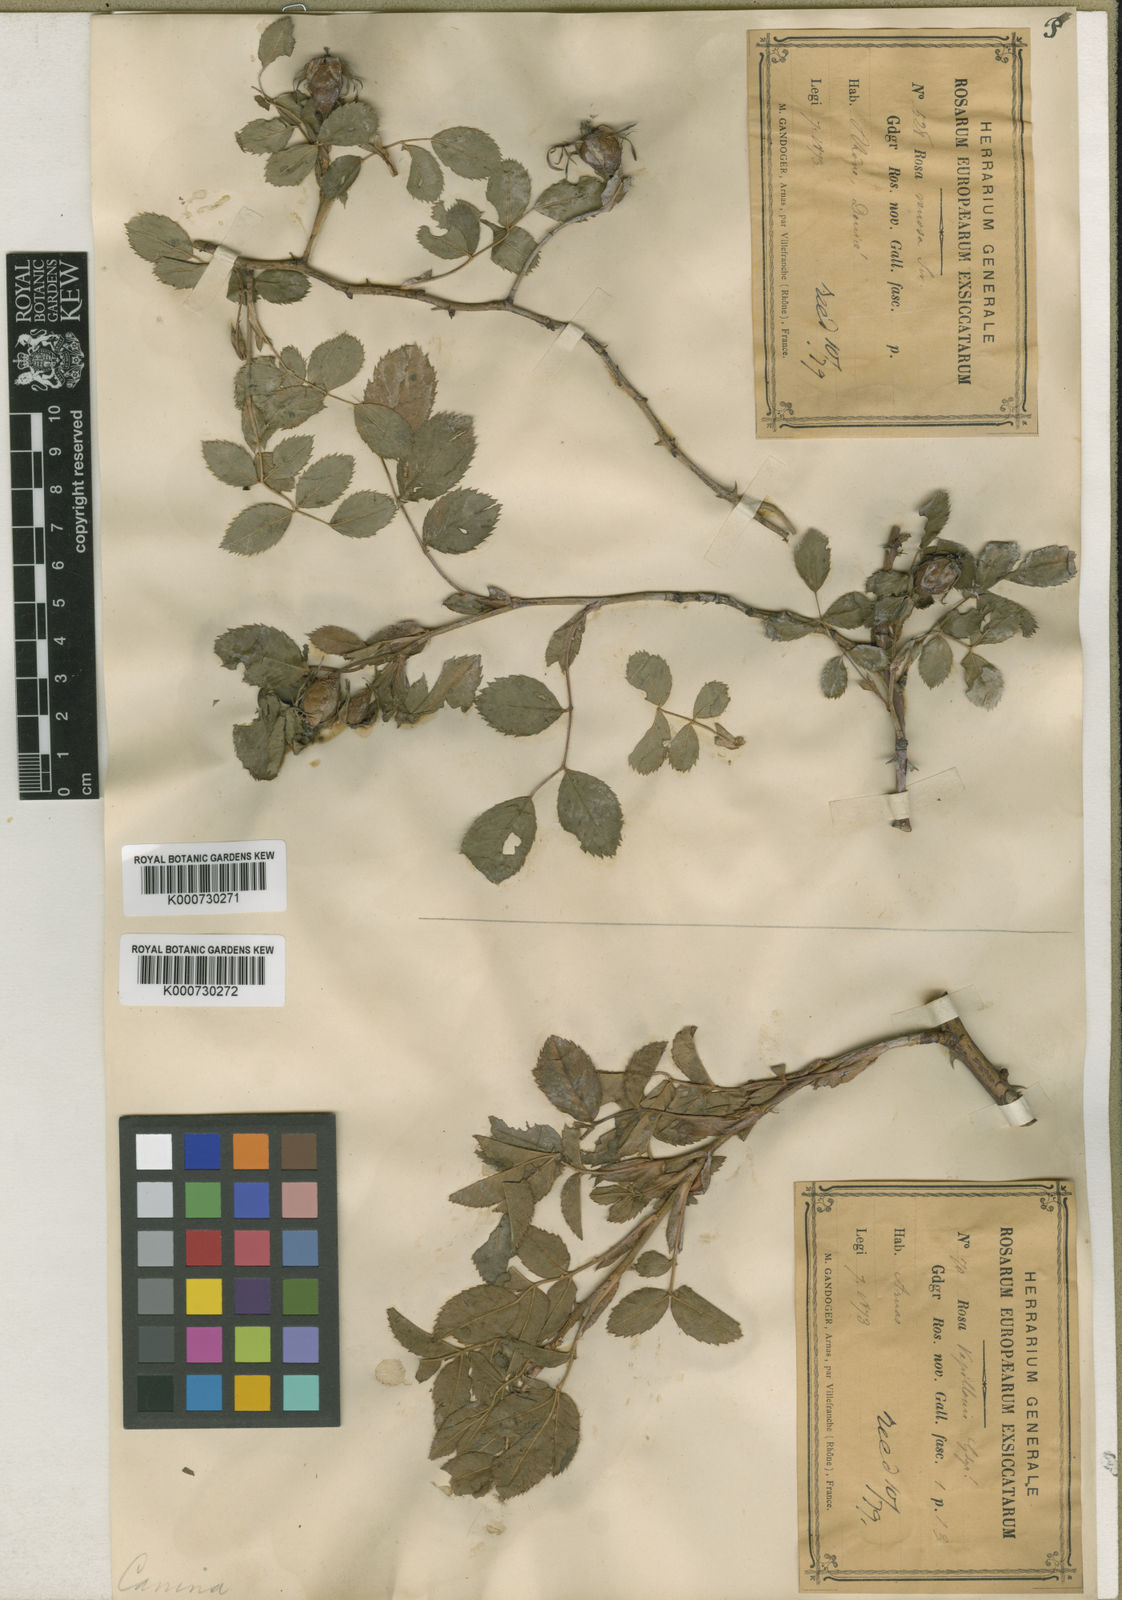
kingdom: Plantae
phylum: Tracheophyta
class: Magnoliopsida
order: Rosales
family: Rosaceae
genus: Rosa
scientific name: Rosa canina
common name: Dog rose
